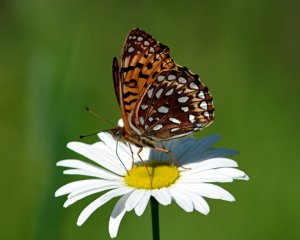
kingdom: Animalia
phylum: Arthropoda
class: Insecta
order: Lepidoptera
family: Nymphalidae
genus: Speyeria
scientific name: Speyeria atlantis
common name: Atlantis Fritillary
